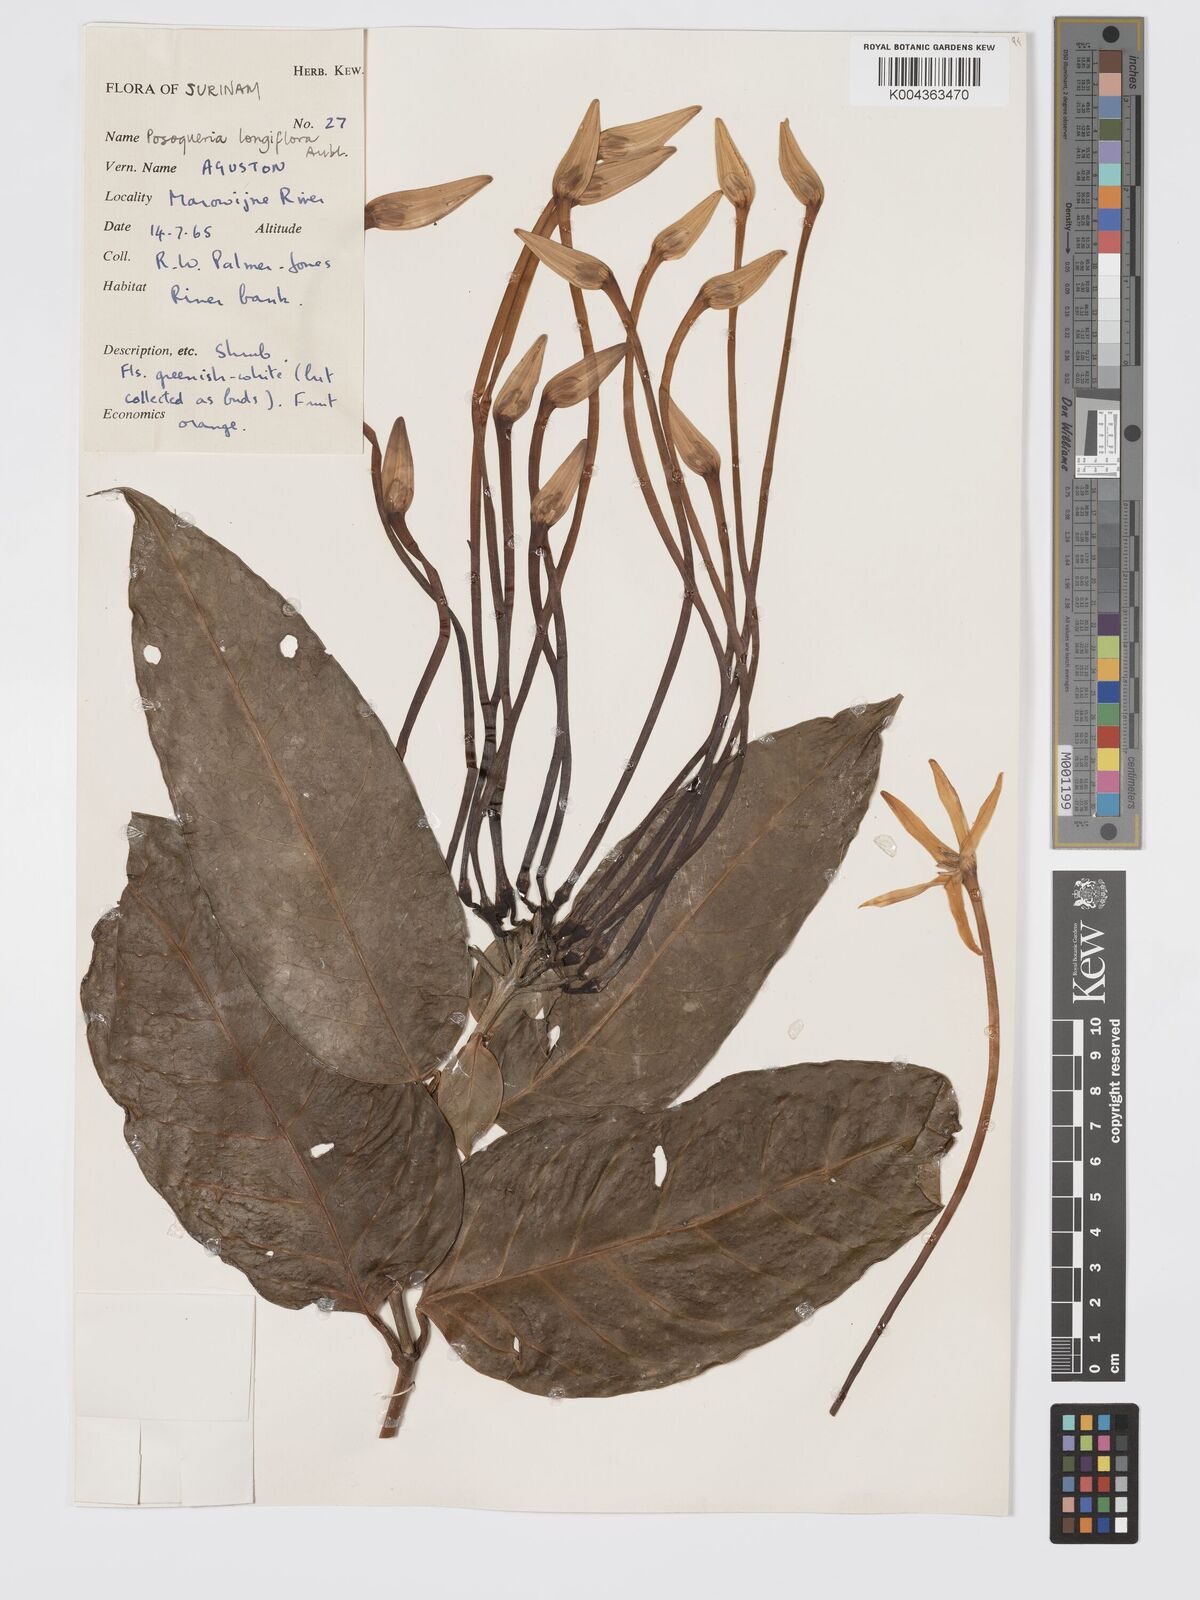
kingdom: Plantae
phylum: Tracheophyta
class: Magnoliopsida
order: Gentianales
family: Rubiaceae
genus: Posoqueria
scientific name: Posoqueria
